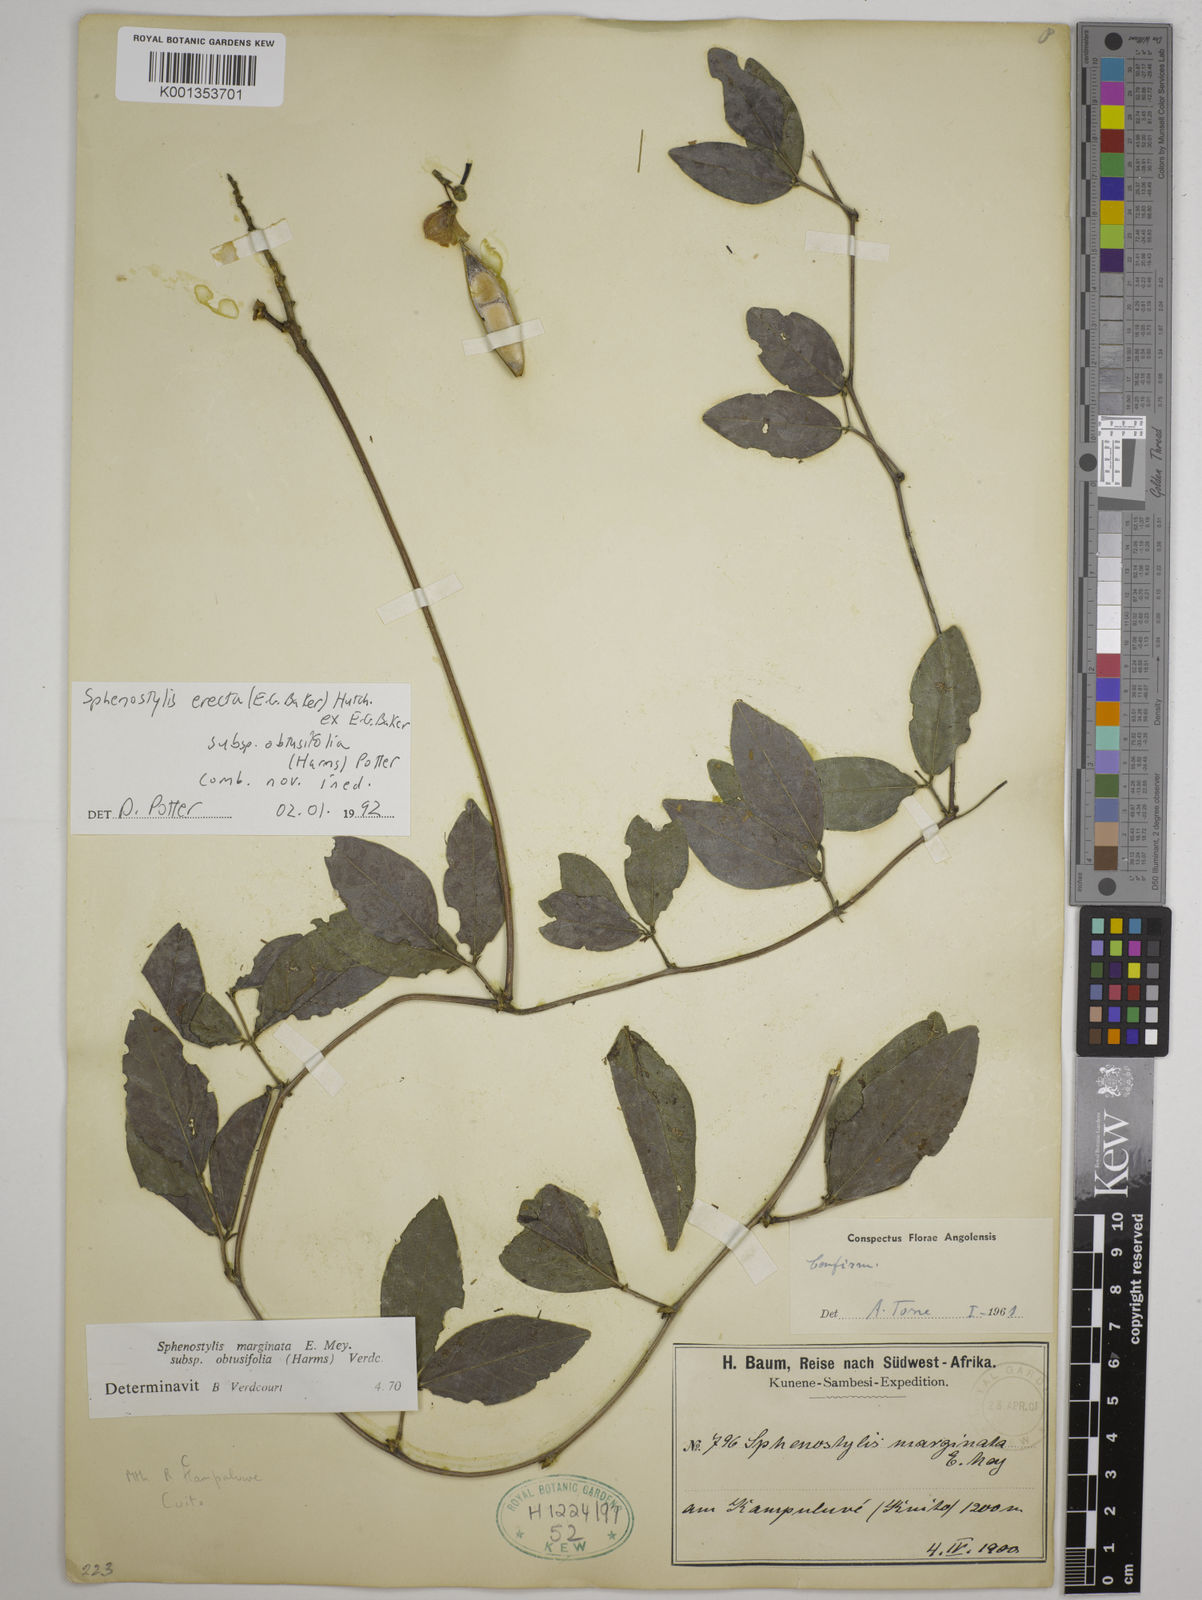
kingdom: Plantae
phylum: Tracheophyta
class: Magnoliopsida
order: Fabales
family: Fabaceae
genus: Sphenostylis
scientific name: Sphenostylis erecta
